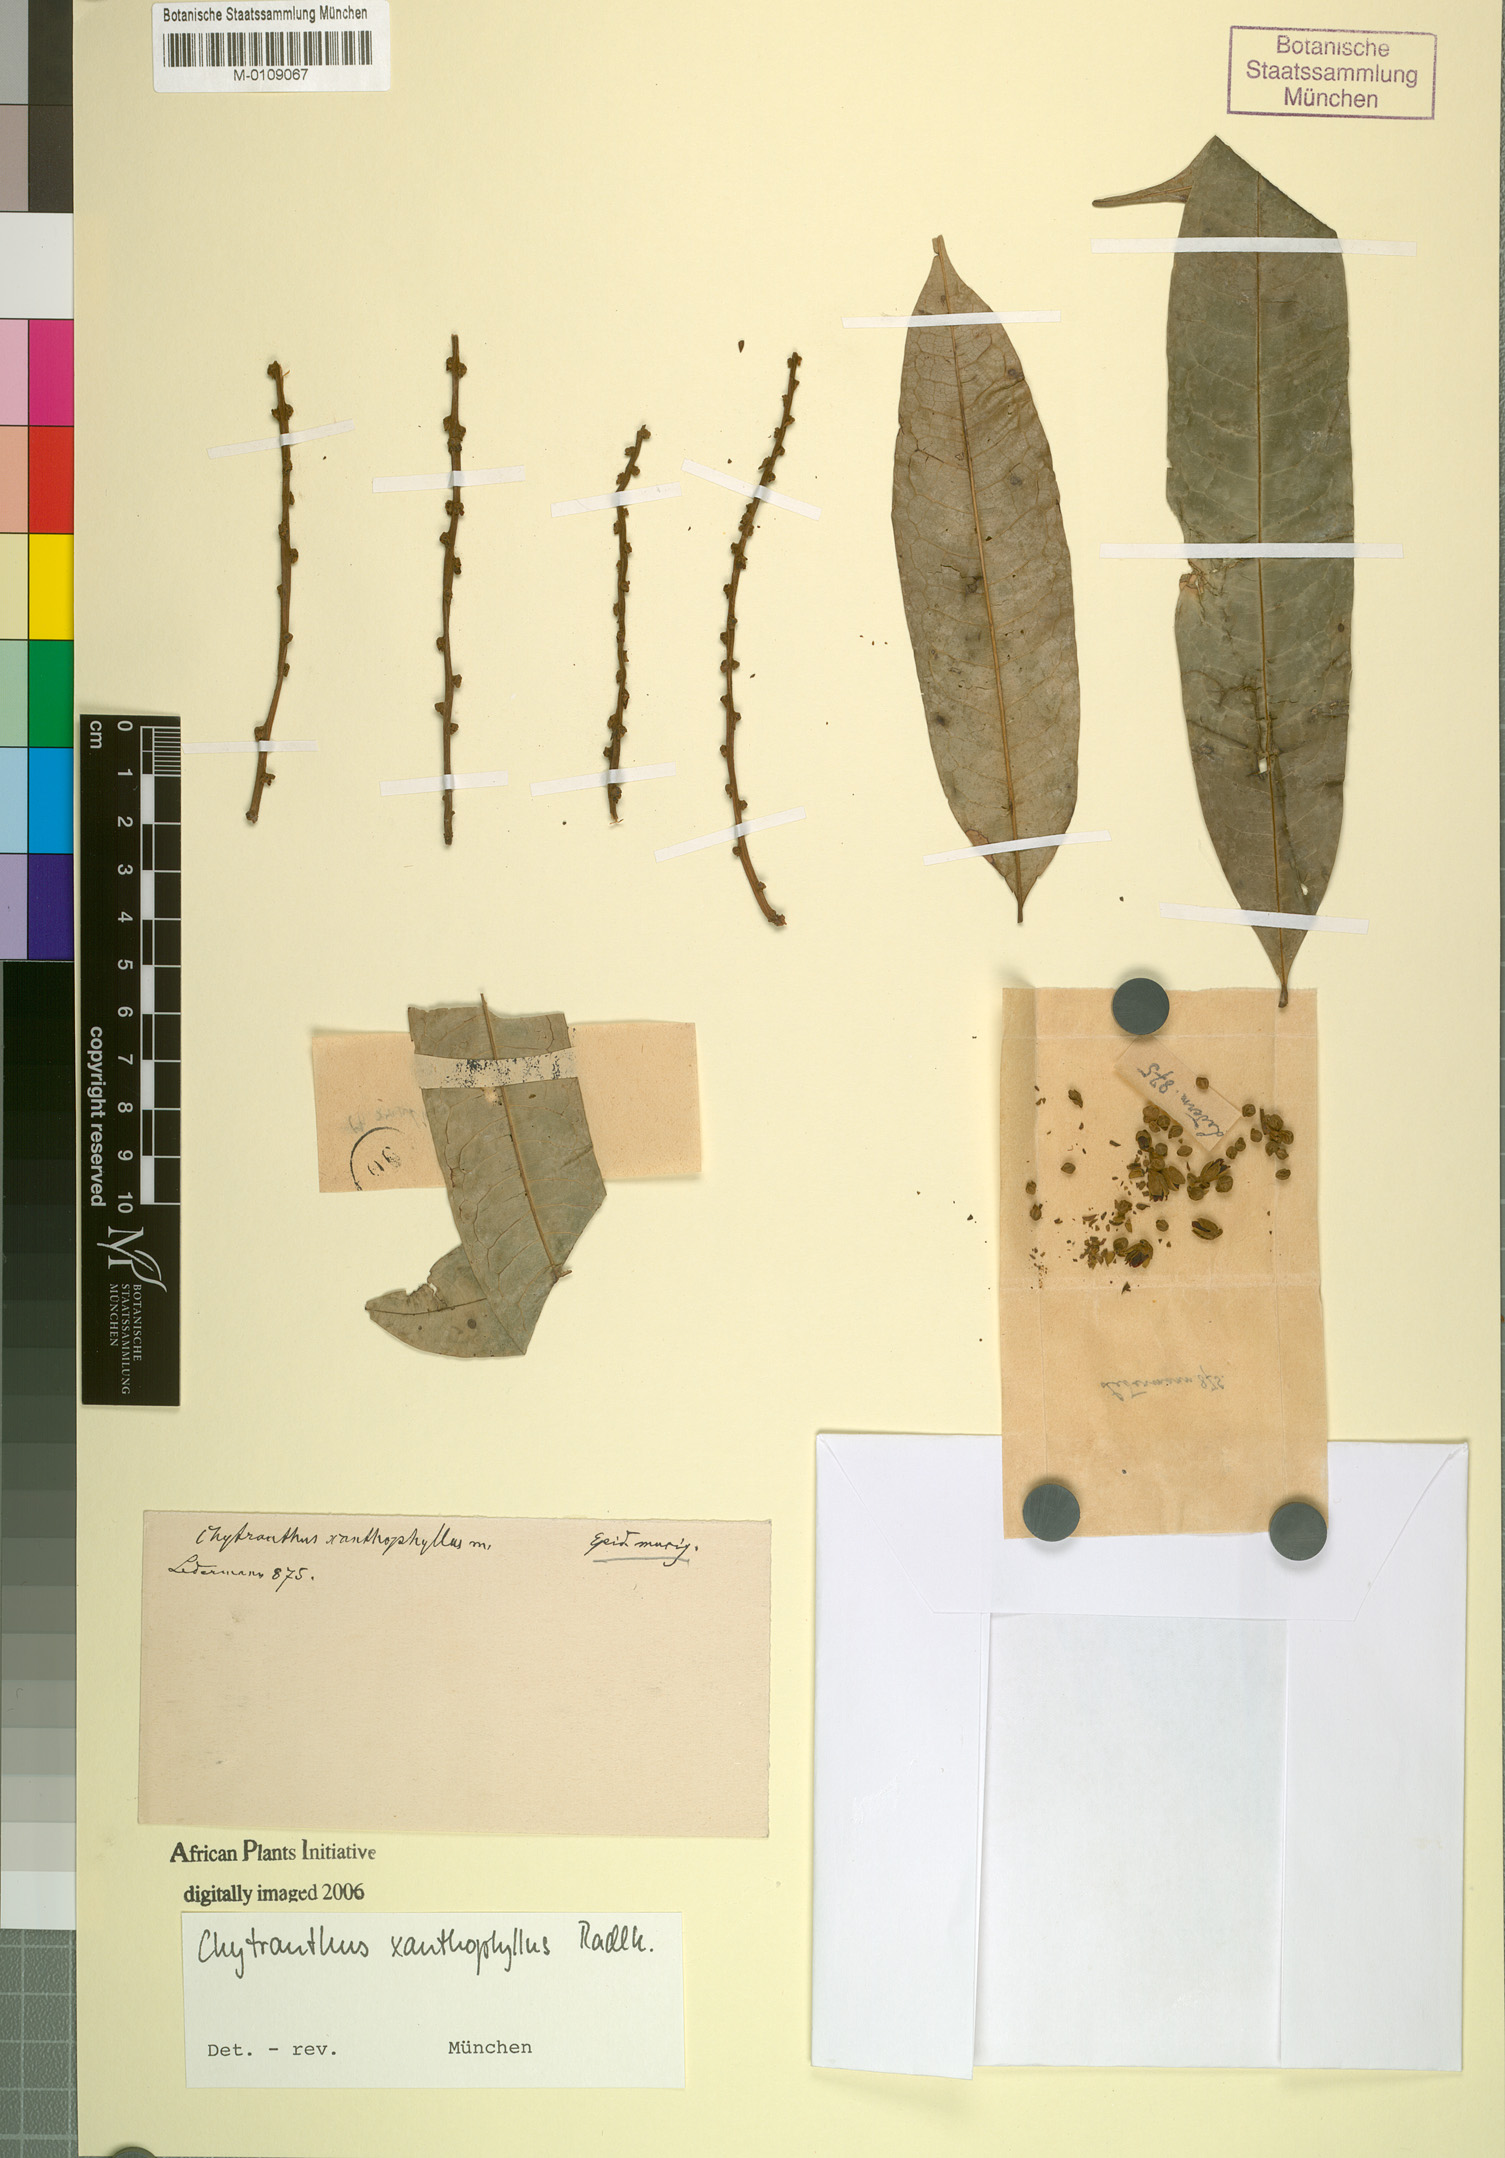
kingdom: Plantae
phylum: Tracheophyta
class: Magnoliopsida
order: Sapindales
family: Sapindaceae
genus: Chytranthus
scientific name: Chytranthus xanthophyllus
